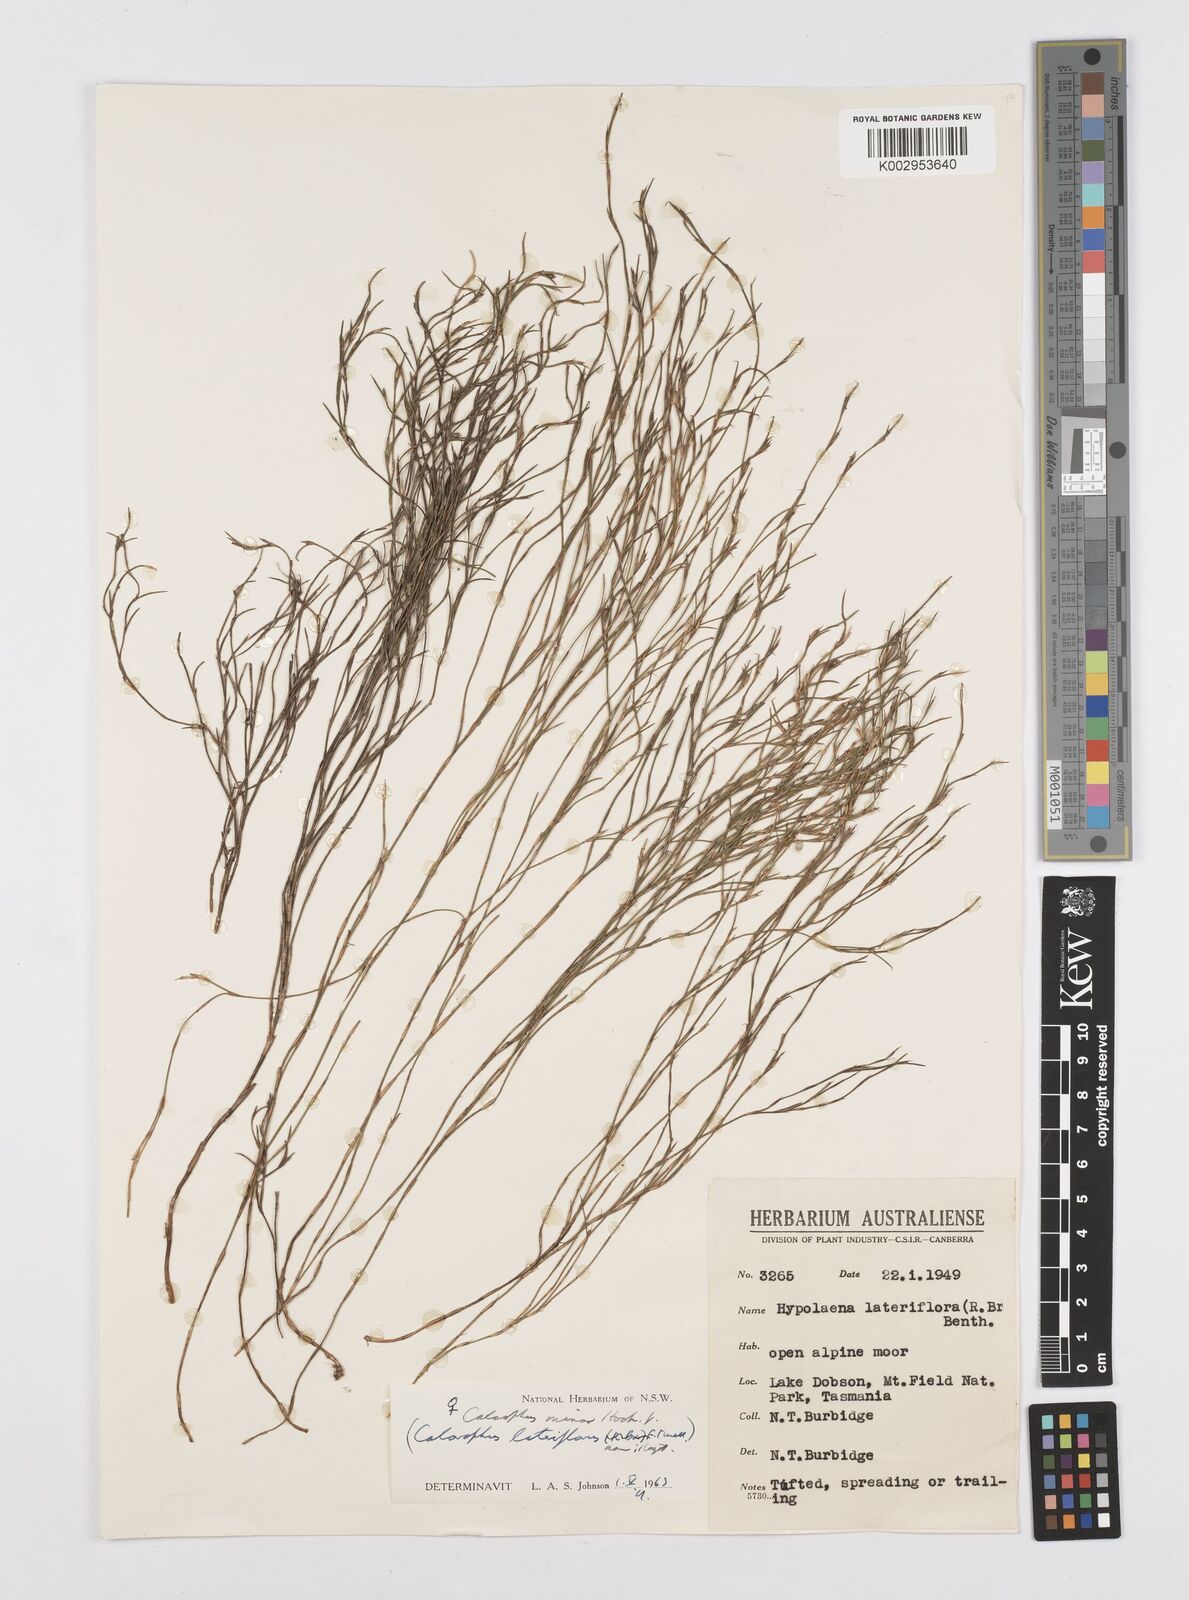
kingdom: Plantae
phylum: Tracheophyta
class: Liliopsida
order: Poales
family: Restionaceae
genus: Empodisma
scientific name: Empodisma minus
